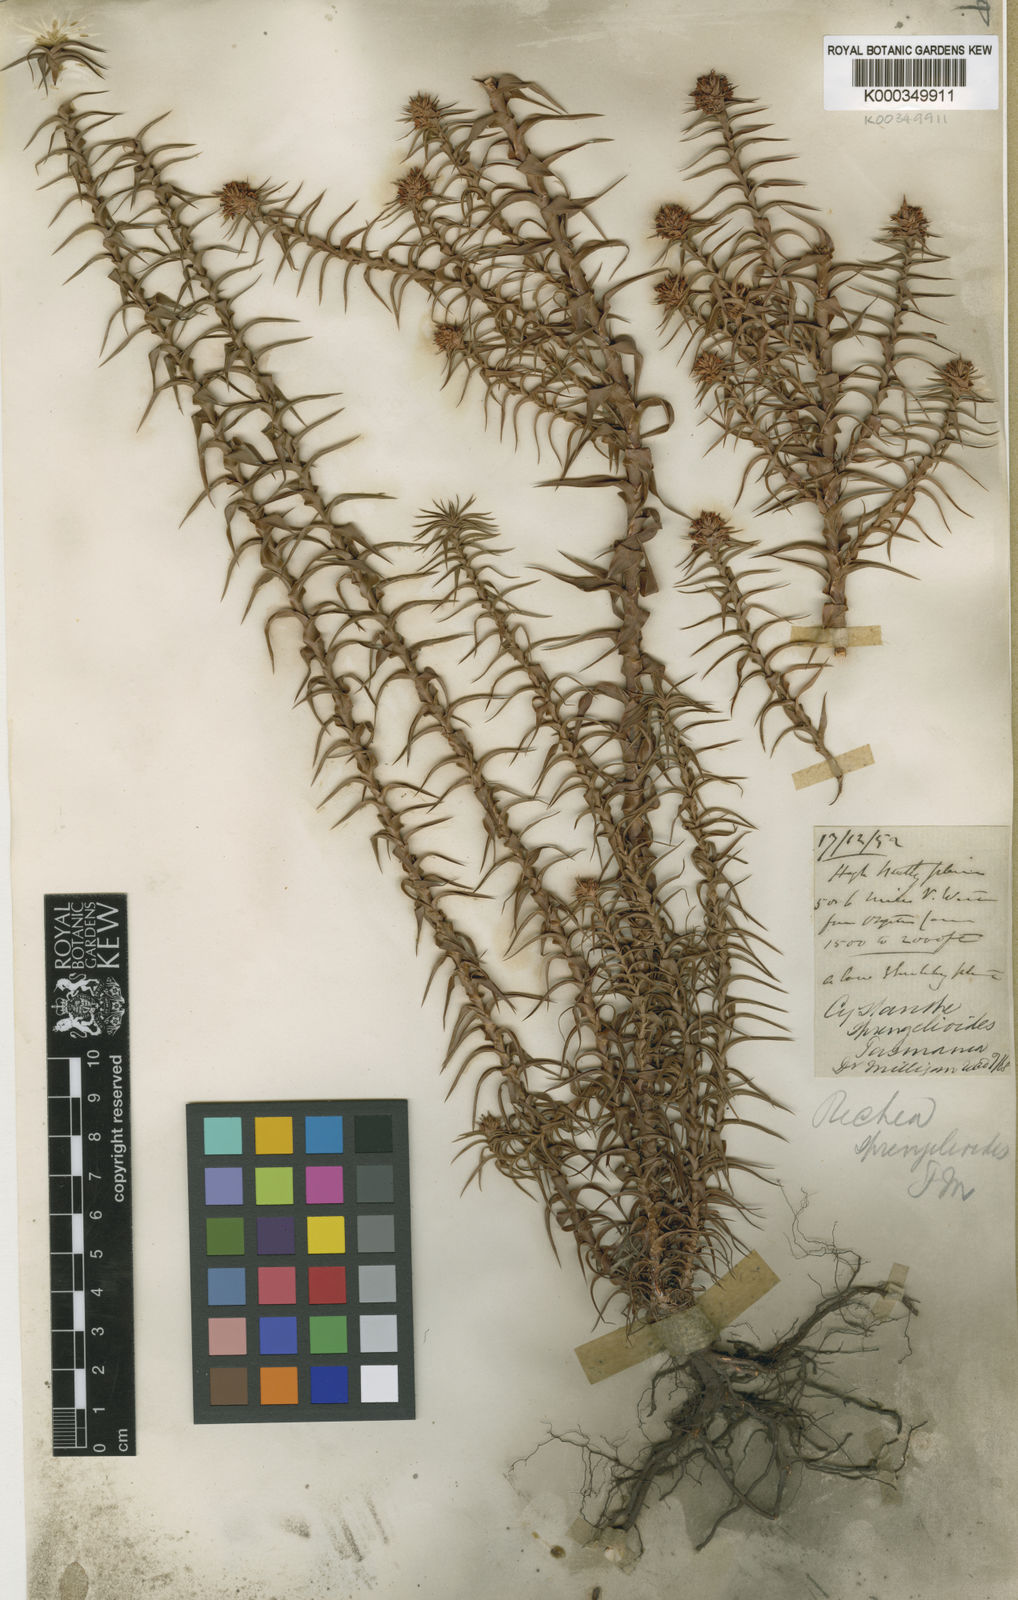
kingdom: Plantae
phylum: Tracheophyta
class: Magnoliopsida
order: Ericales
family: Ericaceae
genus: Dracophyllum
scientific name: Dracophyllum sprengelioides
